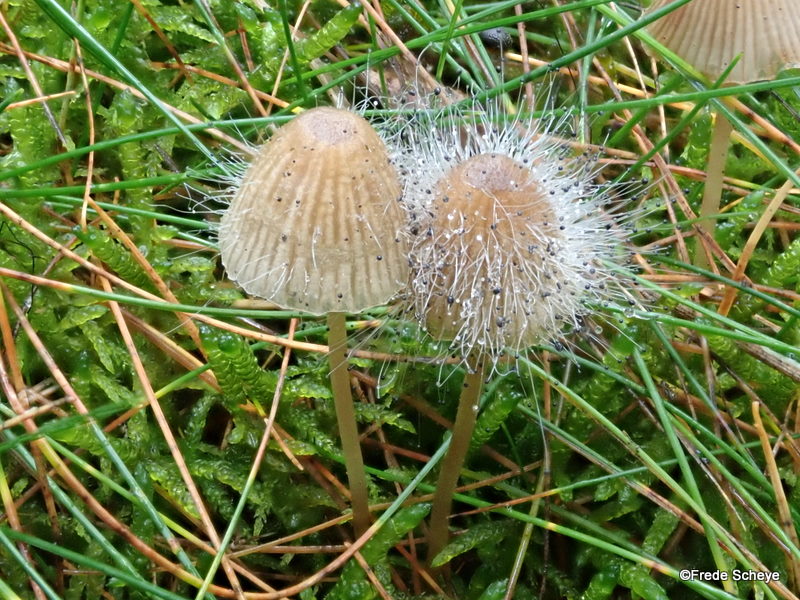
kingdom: Fungi
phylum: Mucoromycota
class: Mucoromycetes
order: Mucorales
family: Phycomycetaceae
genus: Spinellus
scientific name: Spinellus fusiger
